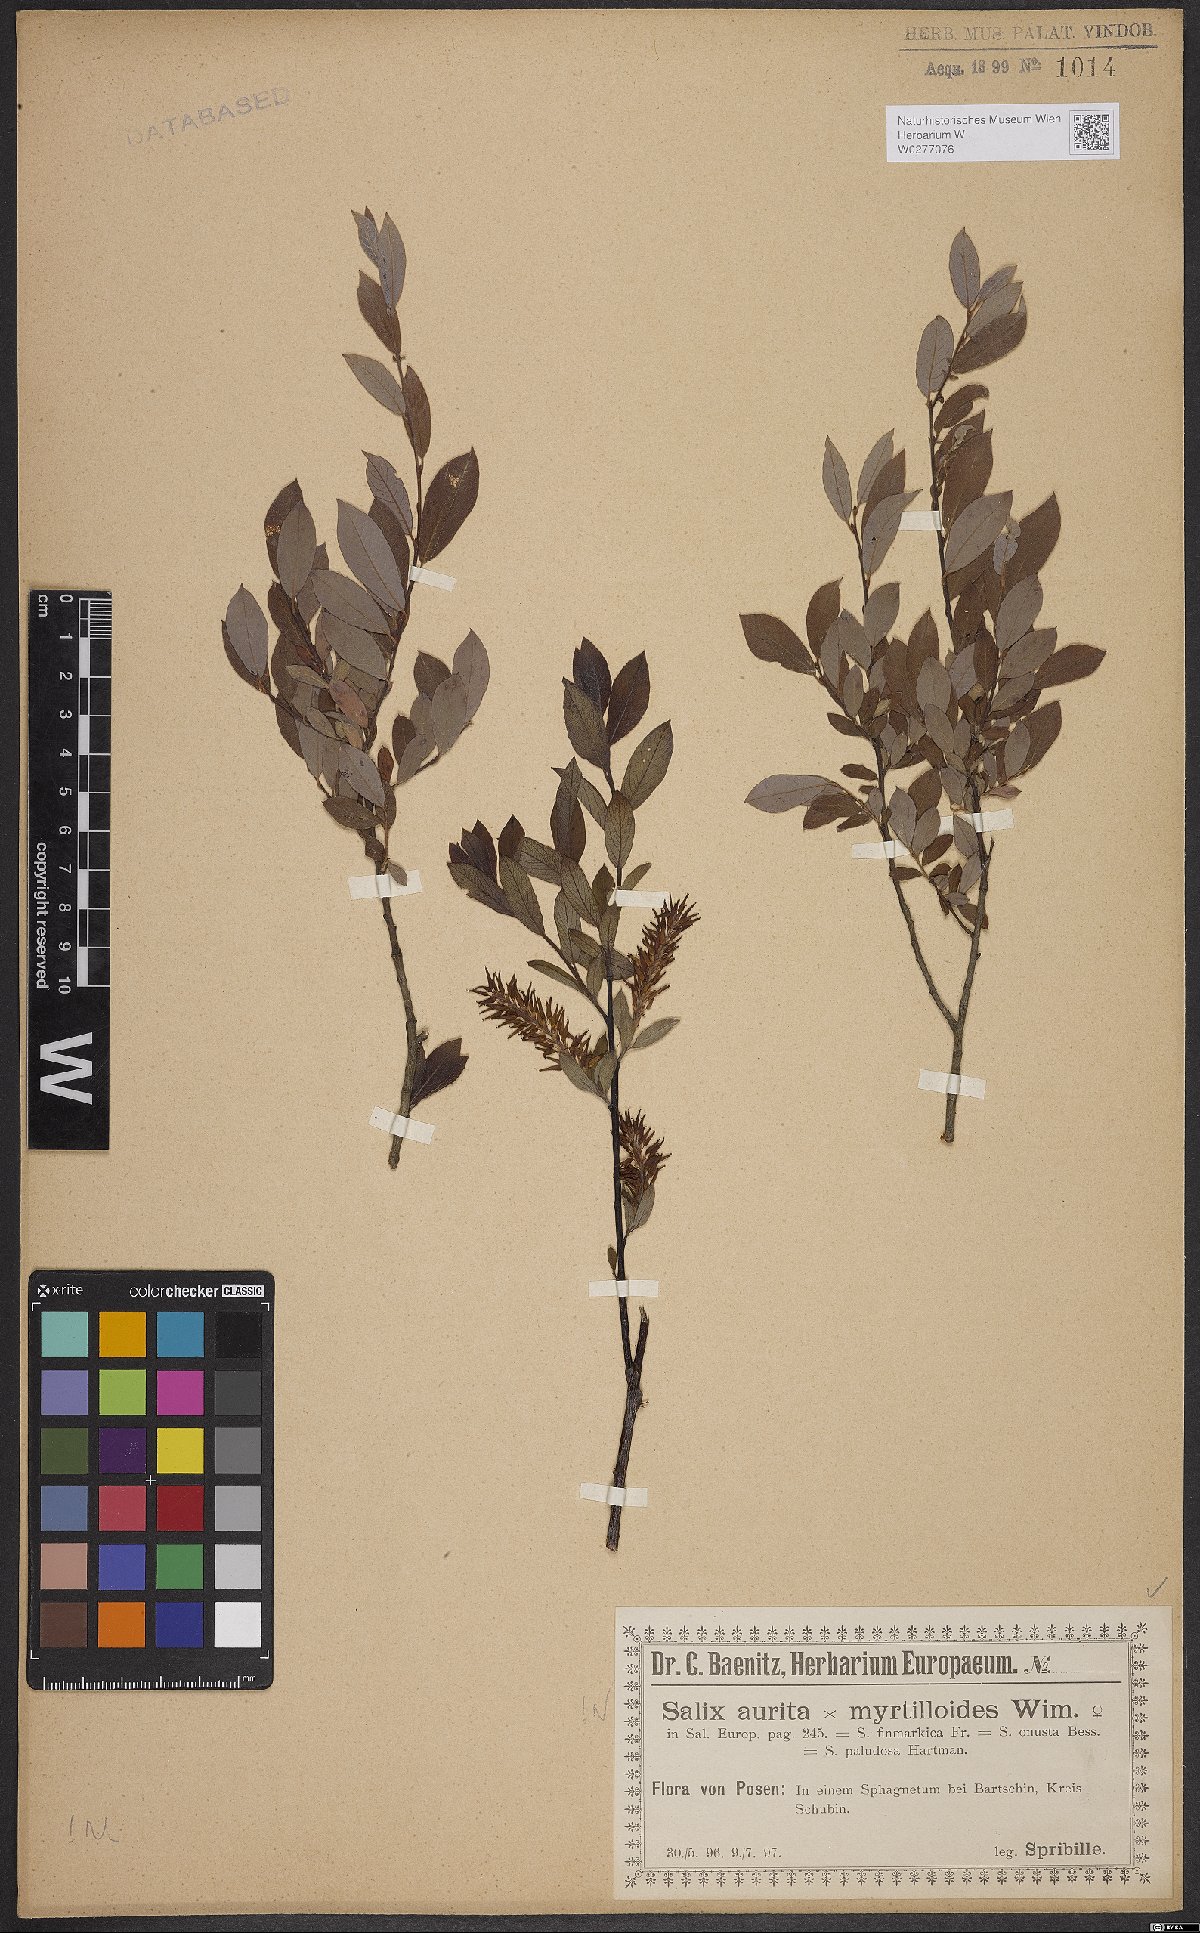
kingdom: Plantae
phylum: Tracheophyta
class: Magnoliopsida
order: Malpighiales
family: Salicaceae
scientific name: Salicaceae
